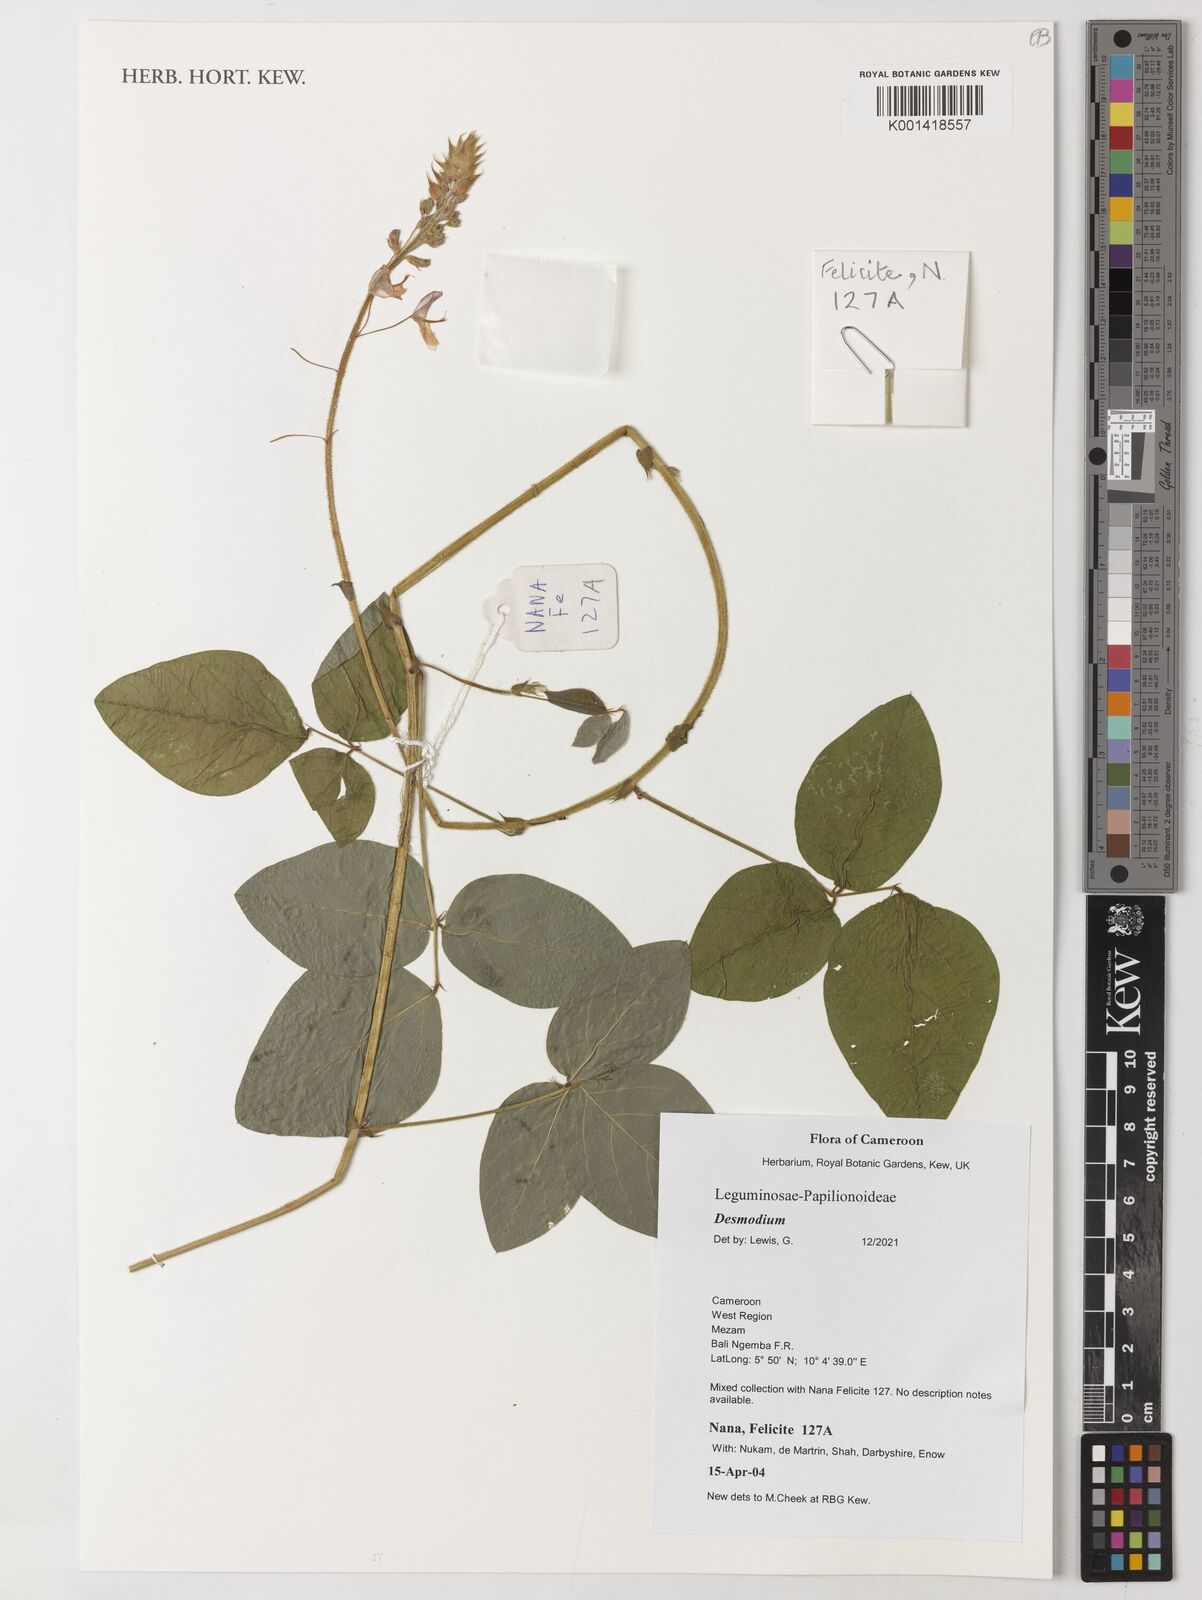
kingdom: Plantae
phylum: Tracheophyta
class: Magnoliopsida
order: Fabales
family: Fabaceae
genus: Desmodium
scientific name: Desmodium
